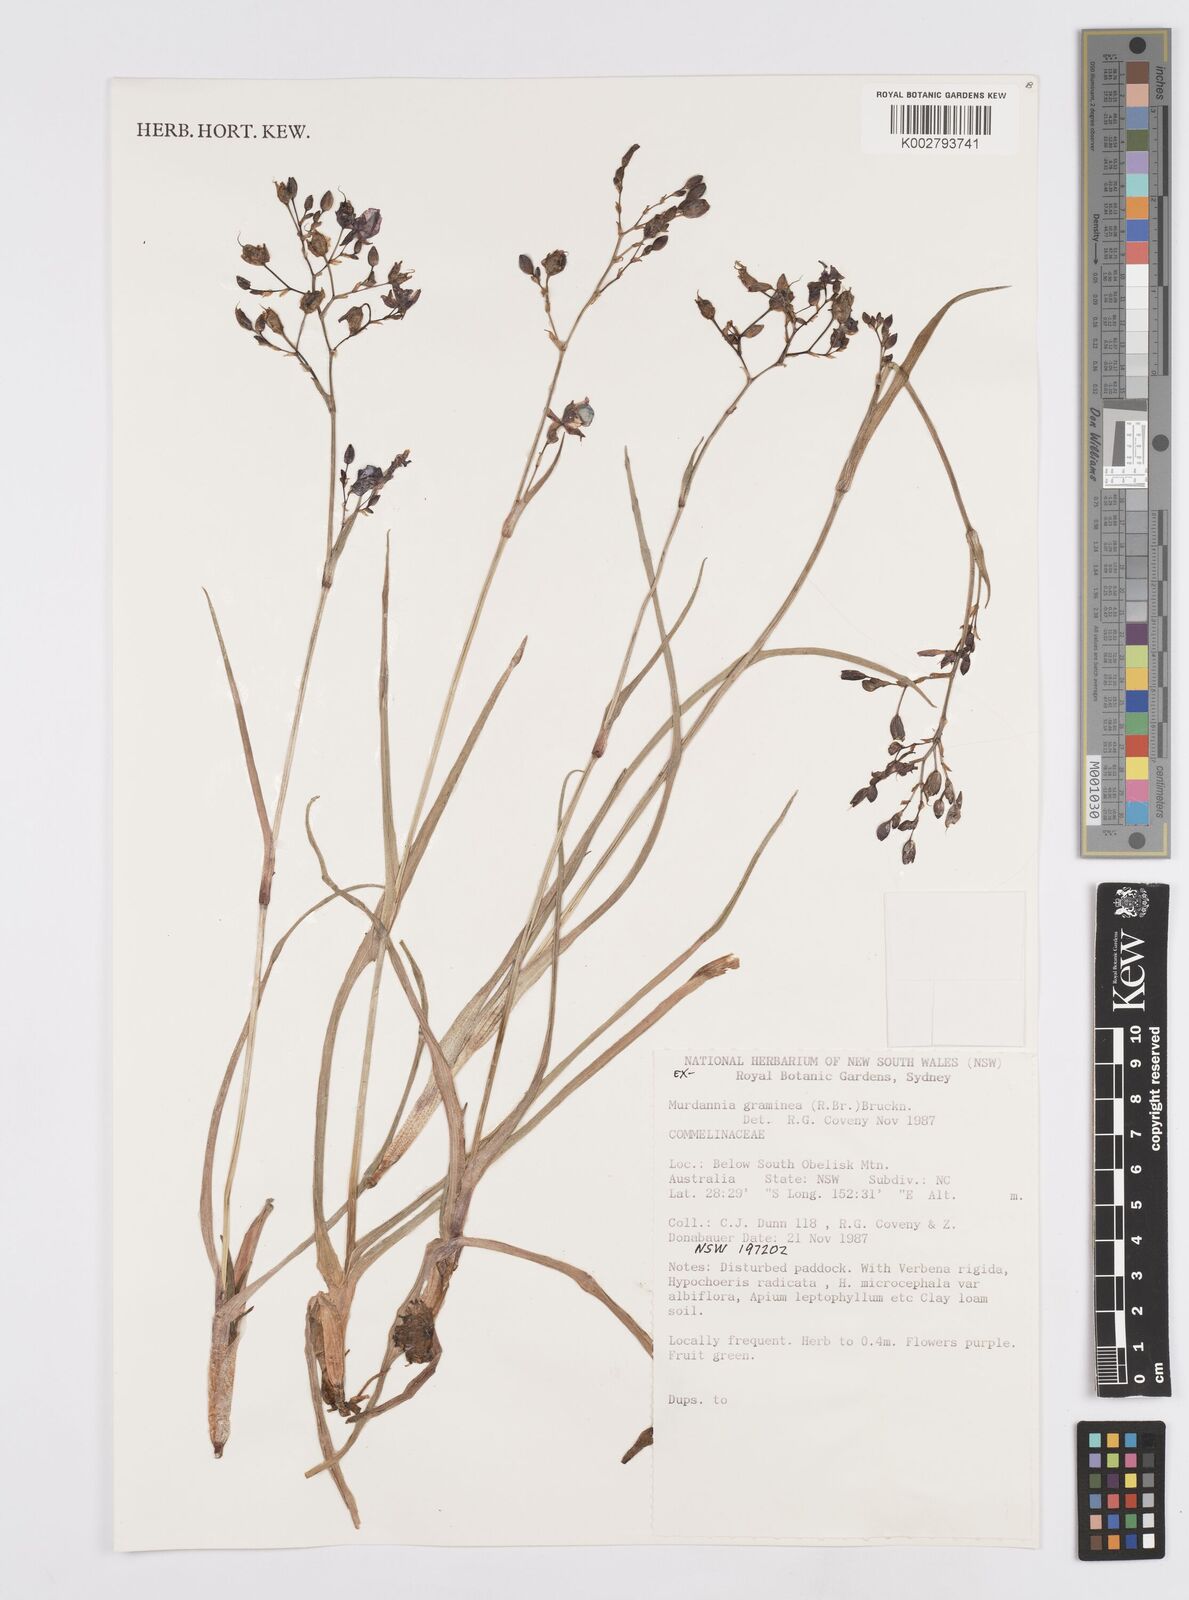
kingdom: Plantae
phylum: Tracheophyta
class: Liliopsida
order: Commelinales
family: Commelinaceae
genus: Murdannia
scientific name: Murdannia graminea
